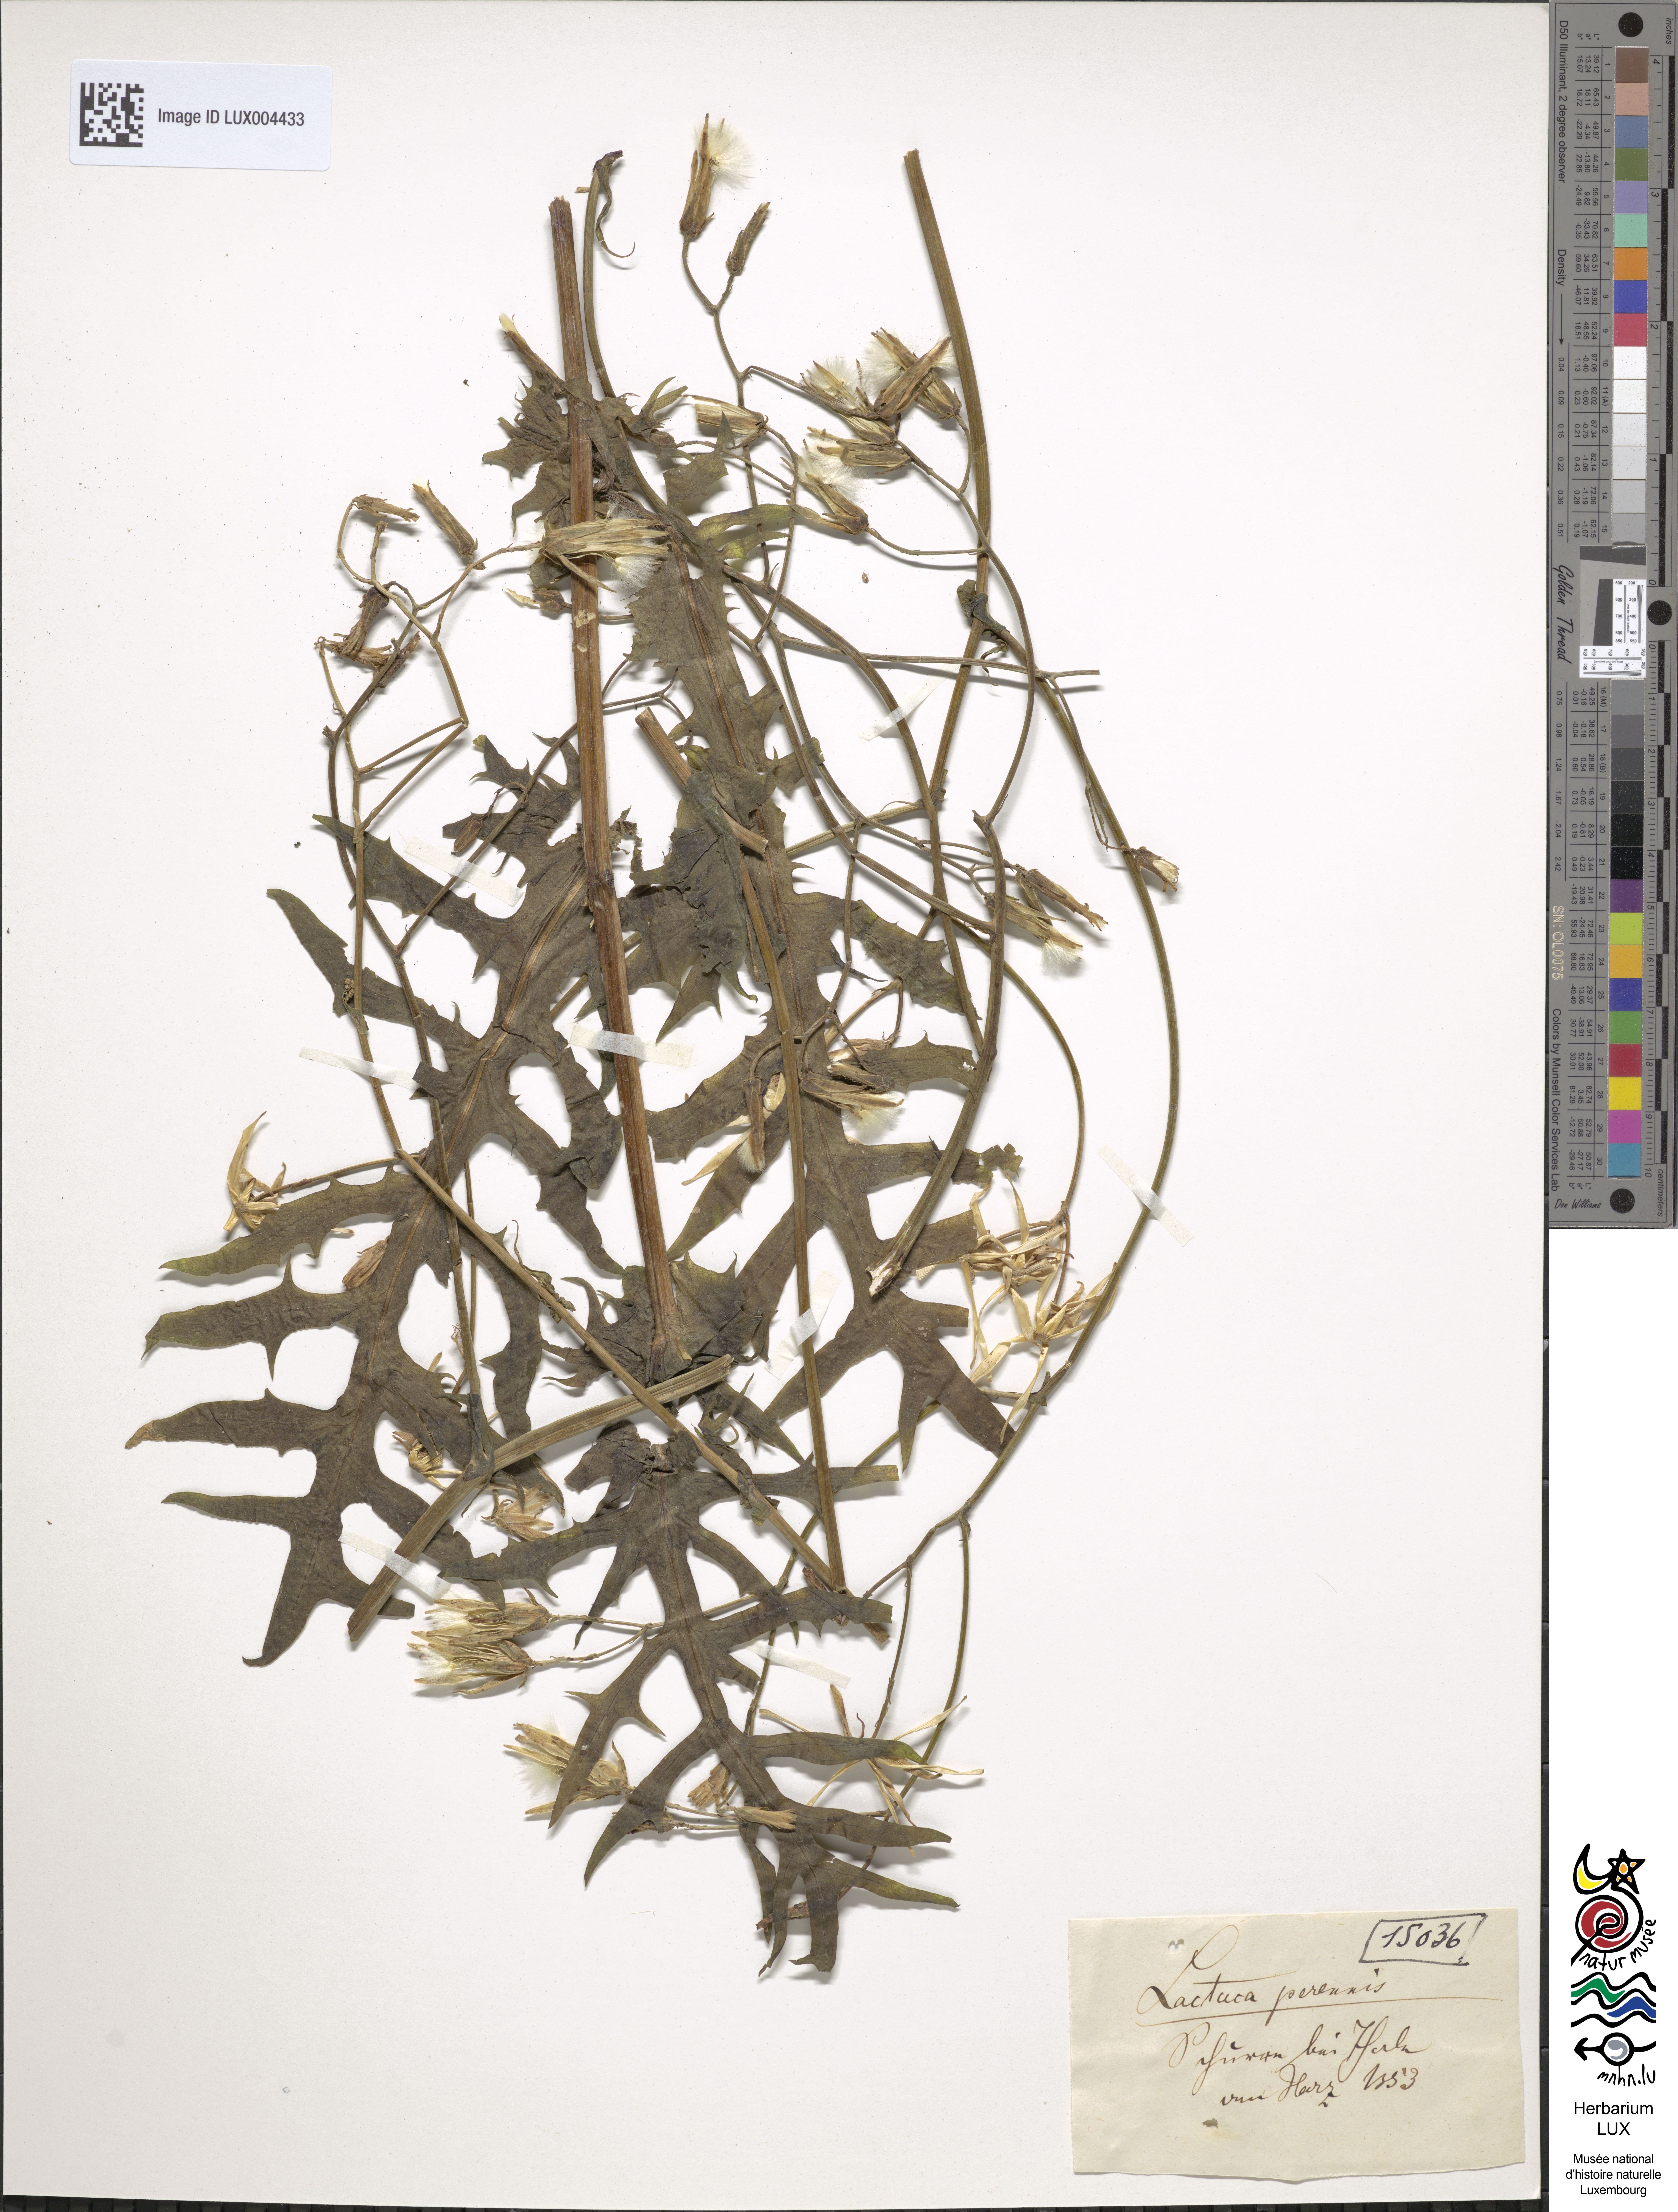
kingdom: Plantae
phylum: Tracheophyta
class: Magnoliopsida
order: Asterales
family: Asteraceae
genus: Lactuca
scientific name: Lactuca perennis
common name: Mountain lettuce
